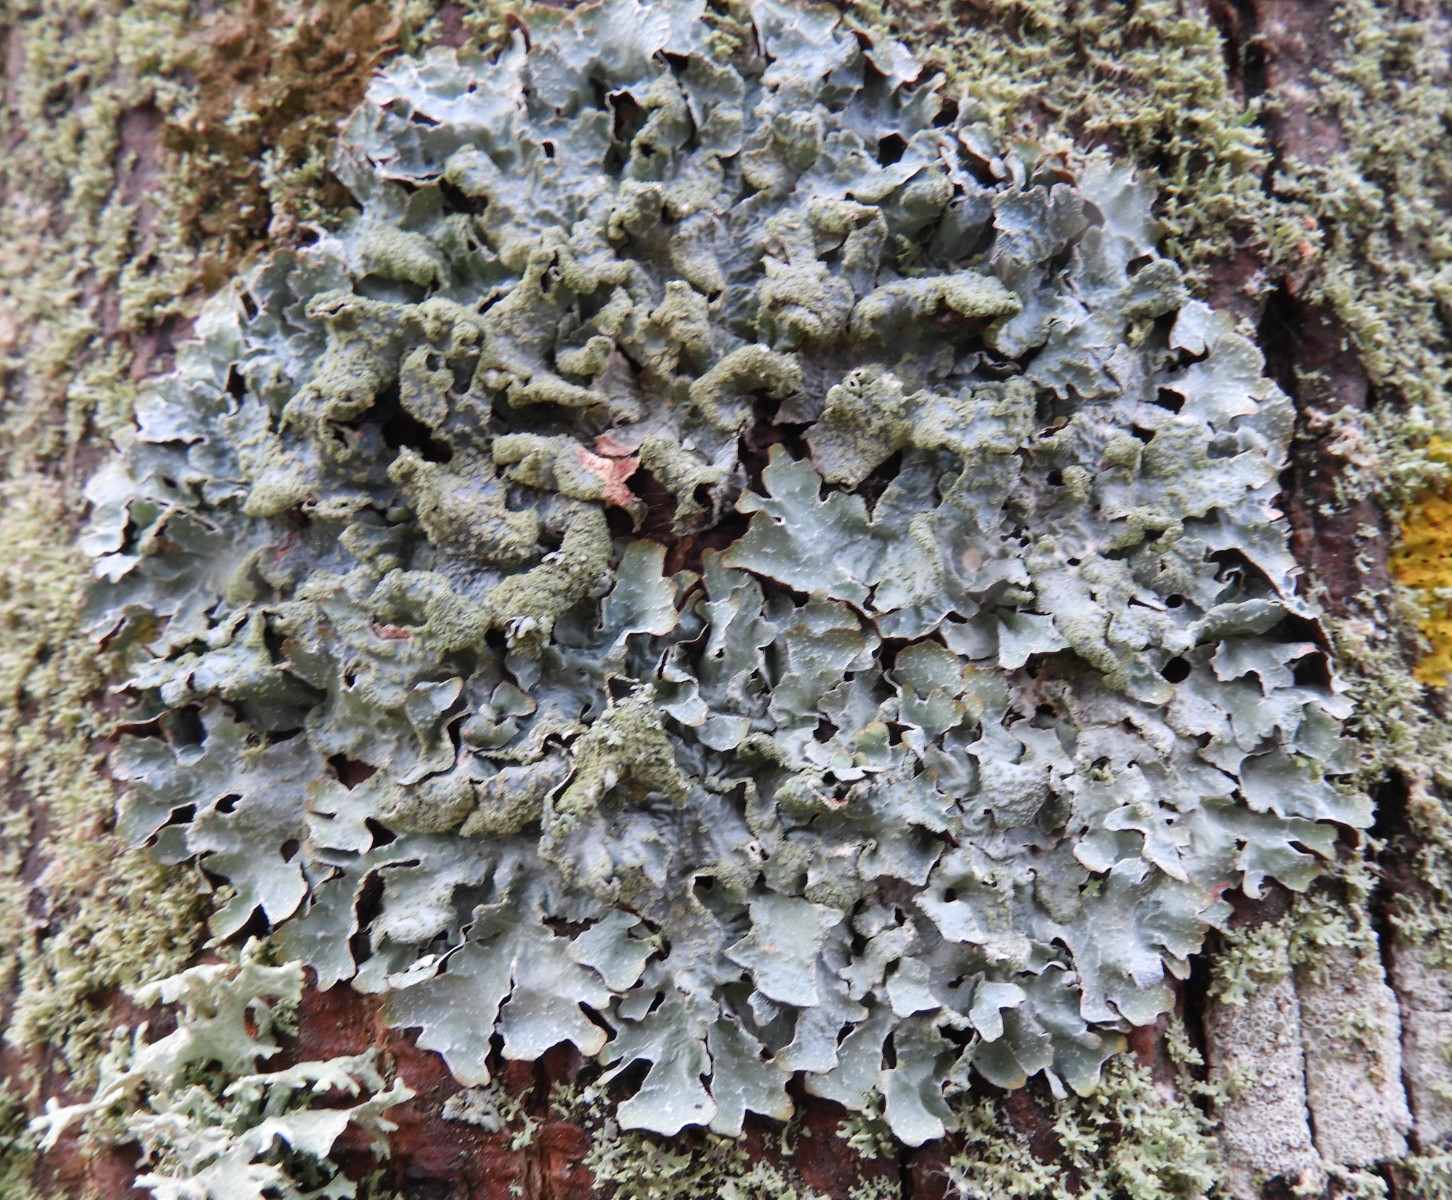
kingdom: Fungi
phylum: Ascomycota
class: Lecanoromycetes
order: Lecanorales
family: Parmeliaceae
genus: Parmelia
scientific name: Parmelia sulcata
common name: rynket skållav
